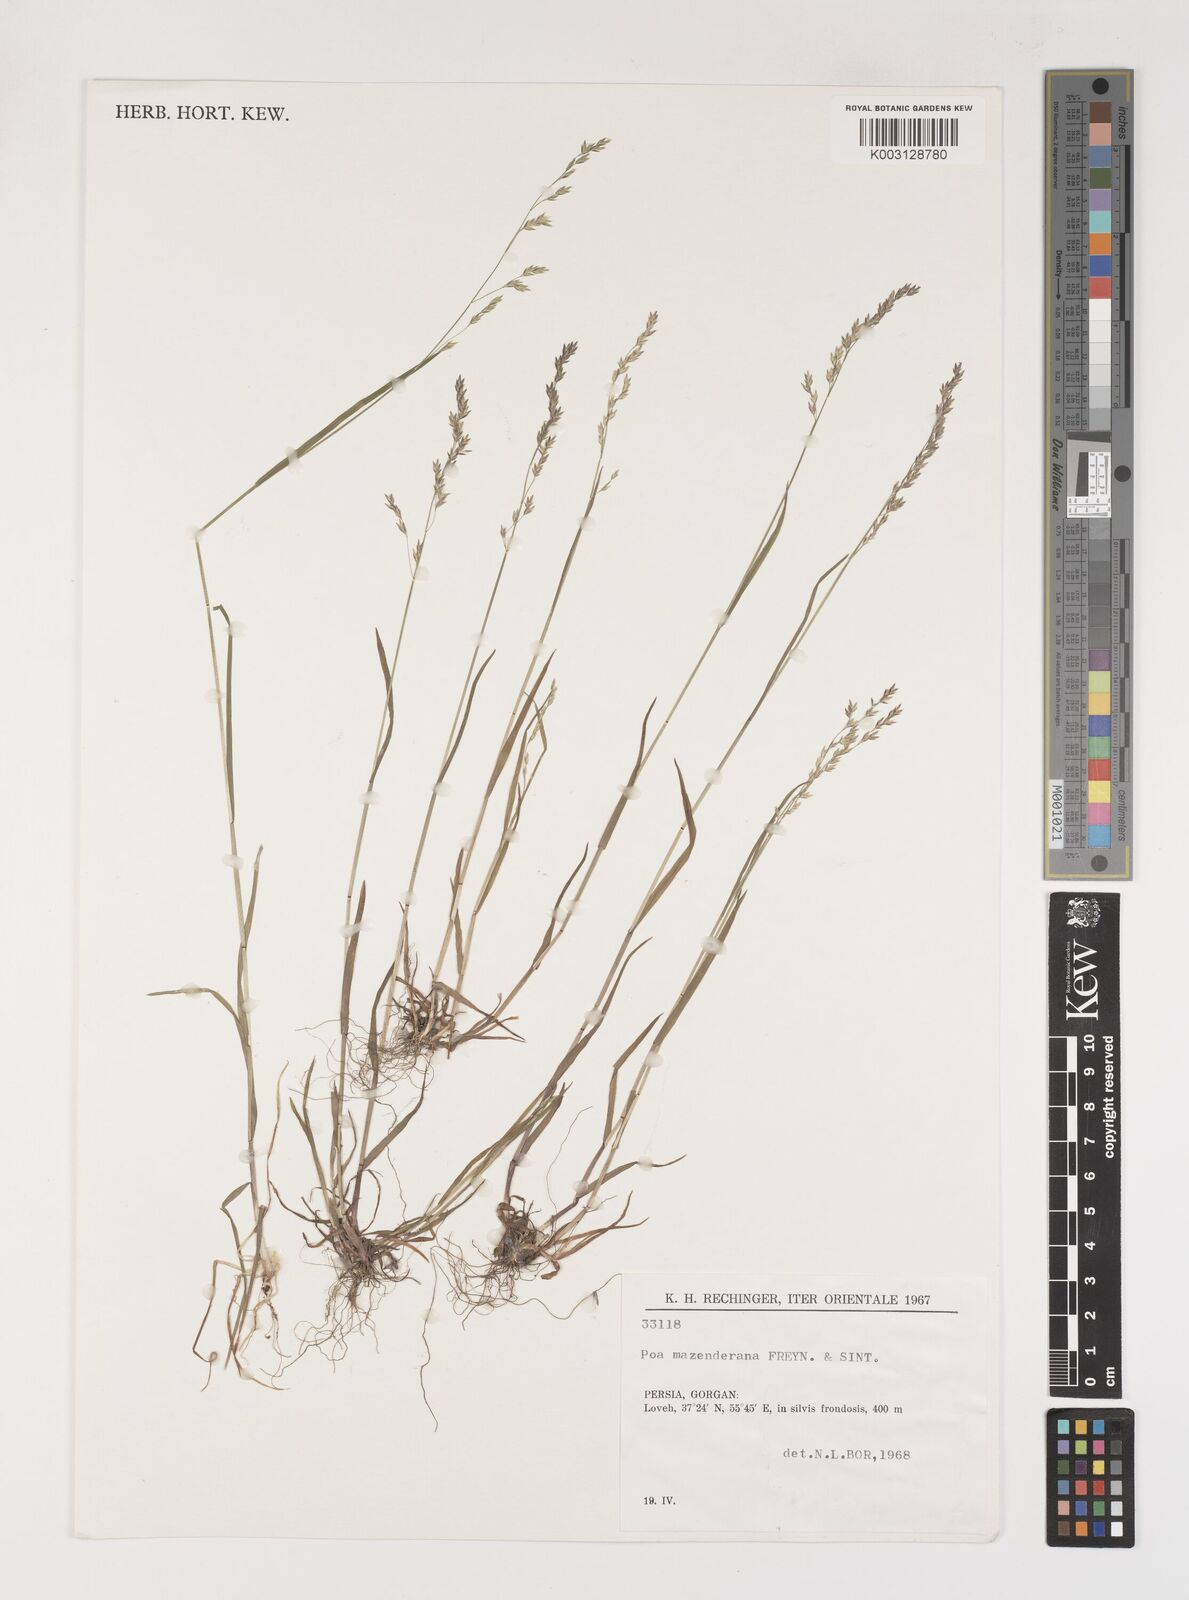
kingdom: Plantae
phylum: Tracheophyta
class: Liliopsida
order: Poales
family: Poaceae
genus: Poa
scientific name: Poa masenderana
